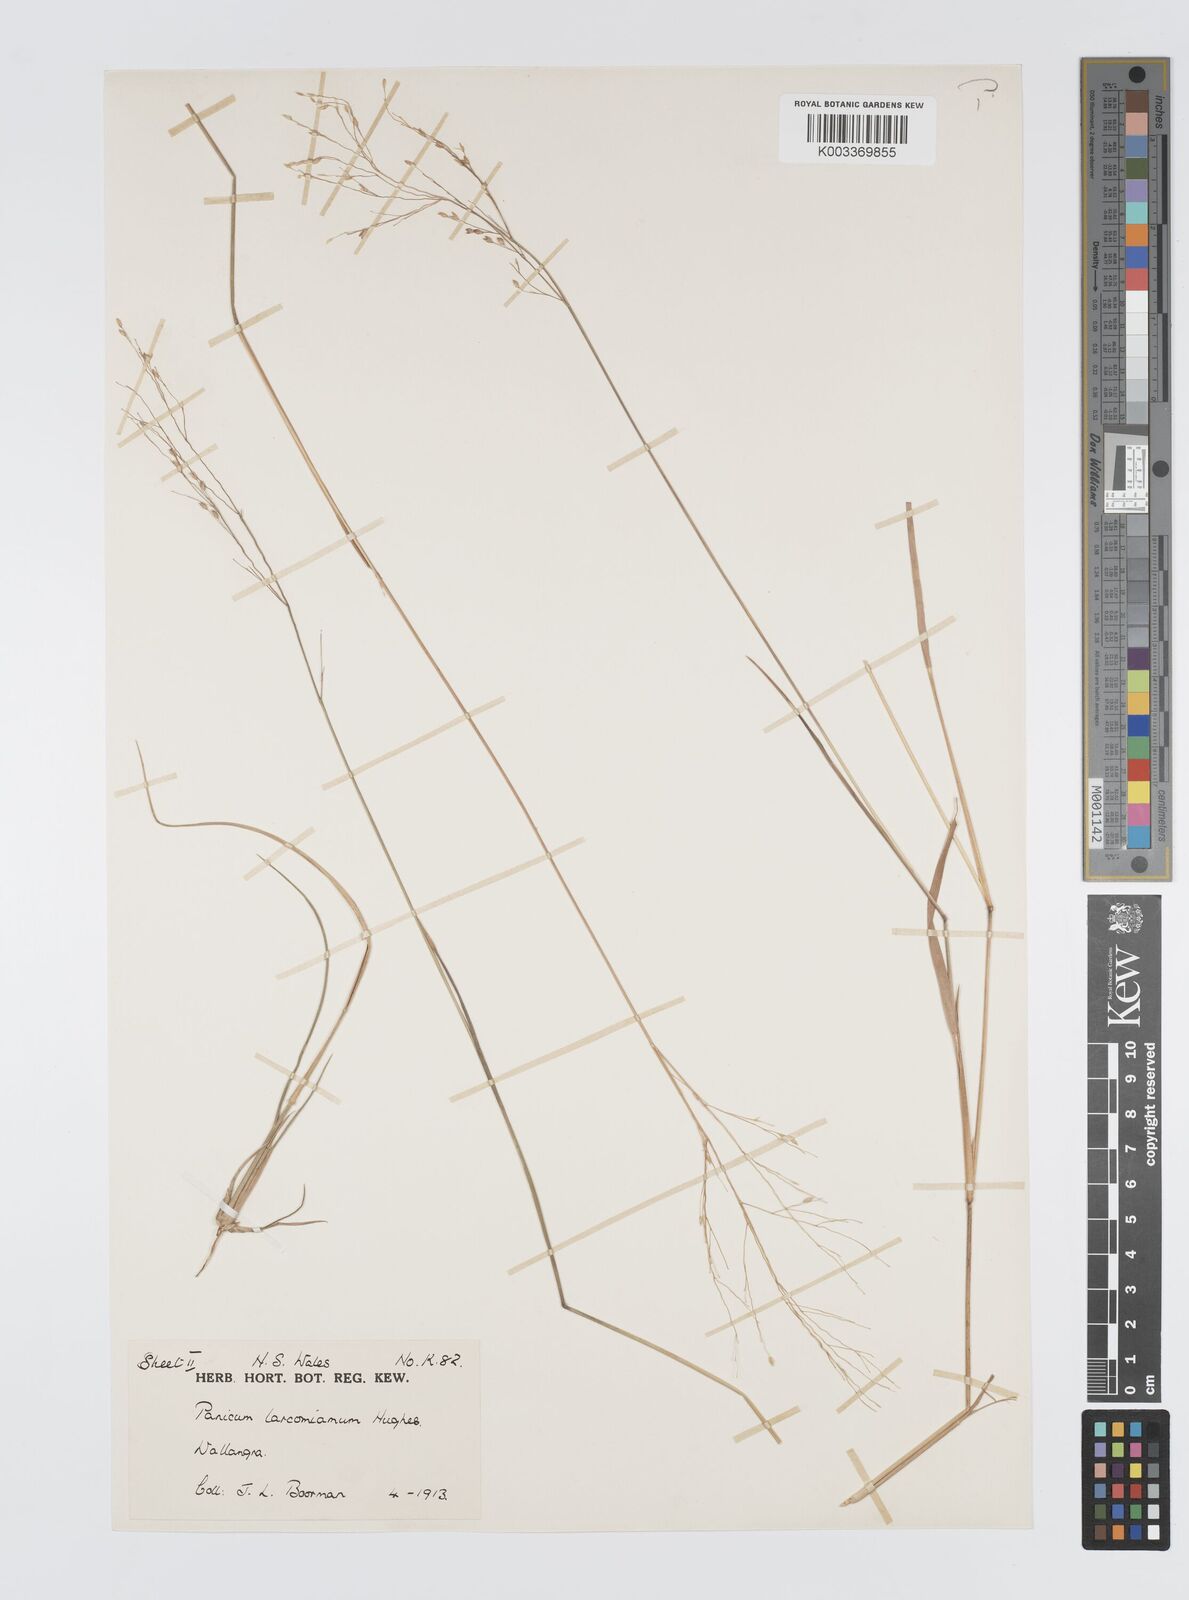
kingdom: Plantae
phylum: Tracheophyta
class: Liliopsida
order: Poales
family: Poaceae
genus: Panicum
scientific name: Panicum larcomianum
